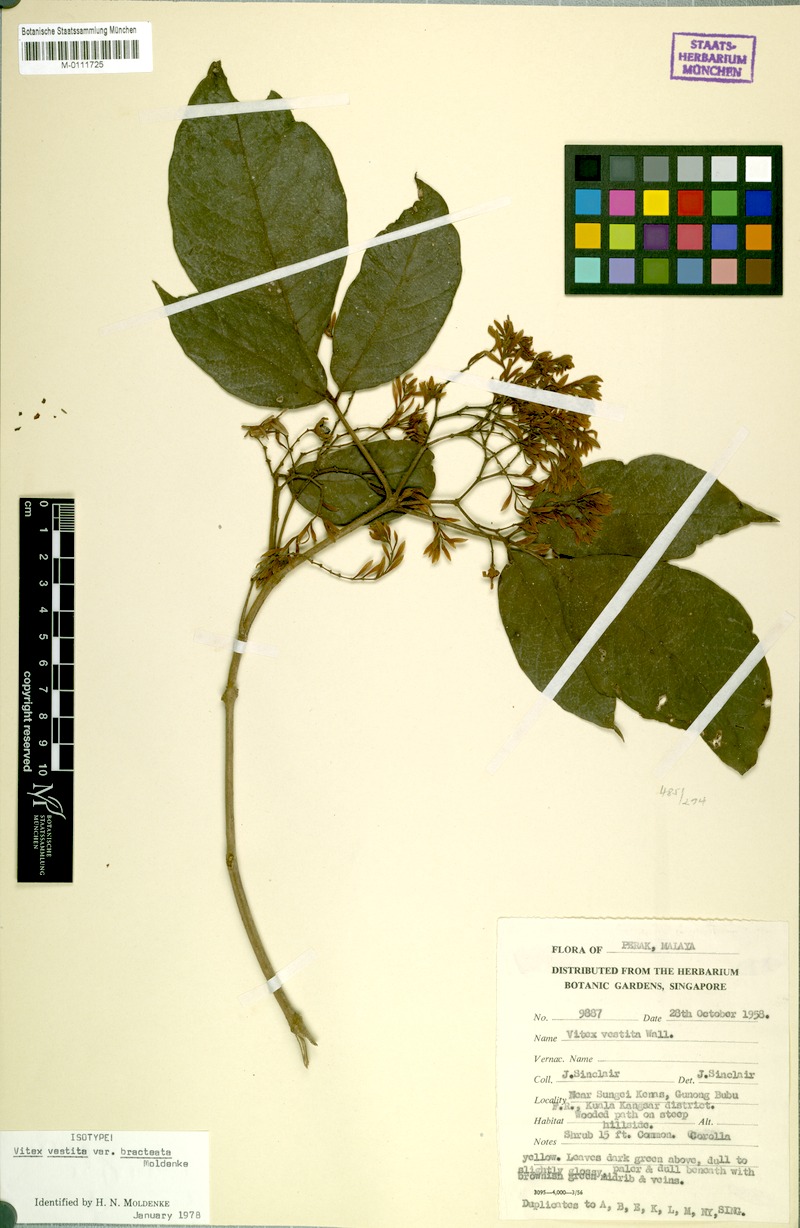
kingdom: Plantae
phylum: Tracheophyta
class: Magnoliopsida
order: Lamiales
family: Lamiaceae
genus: Vitex
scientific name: Vitex longisepala
